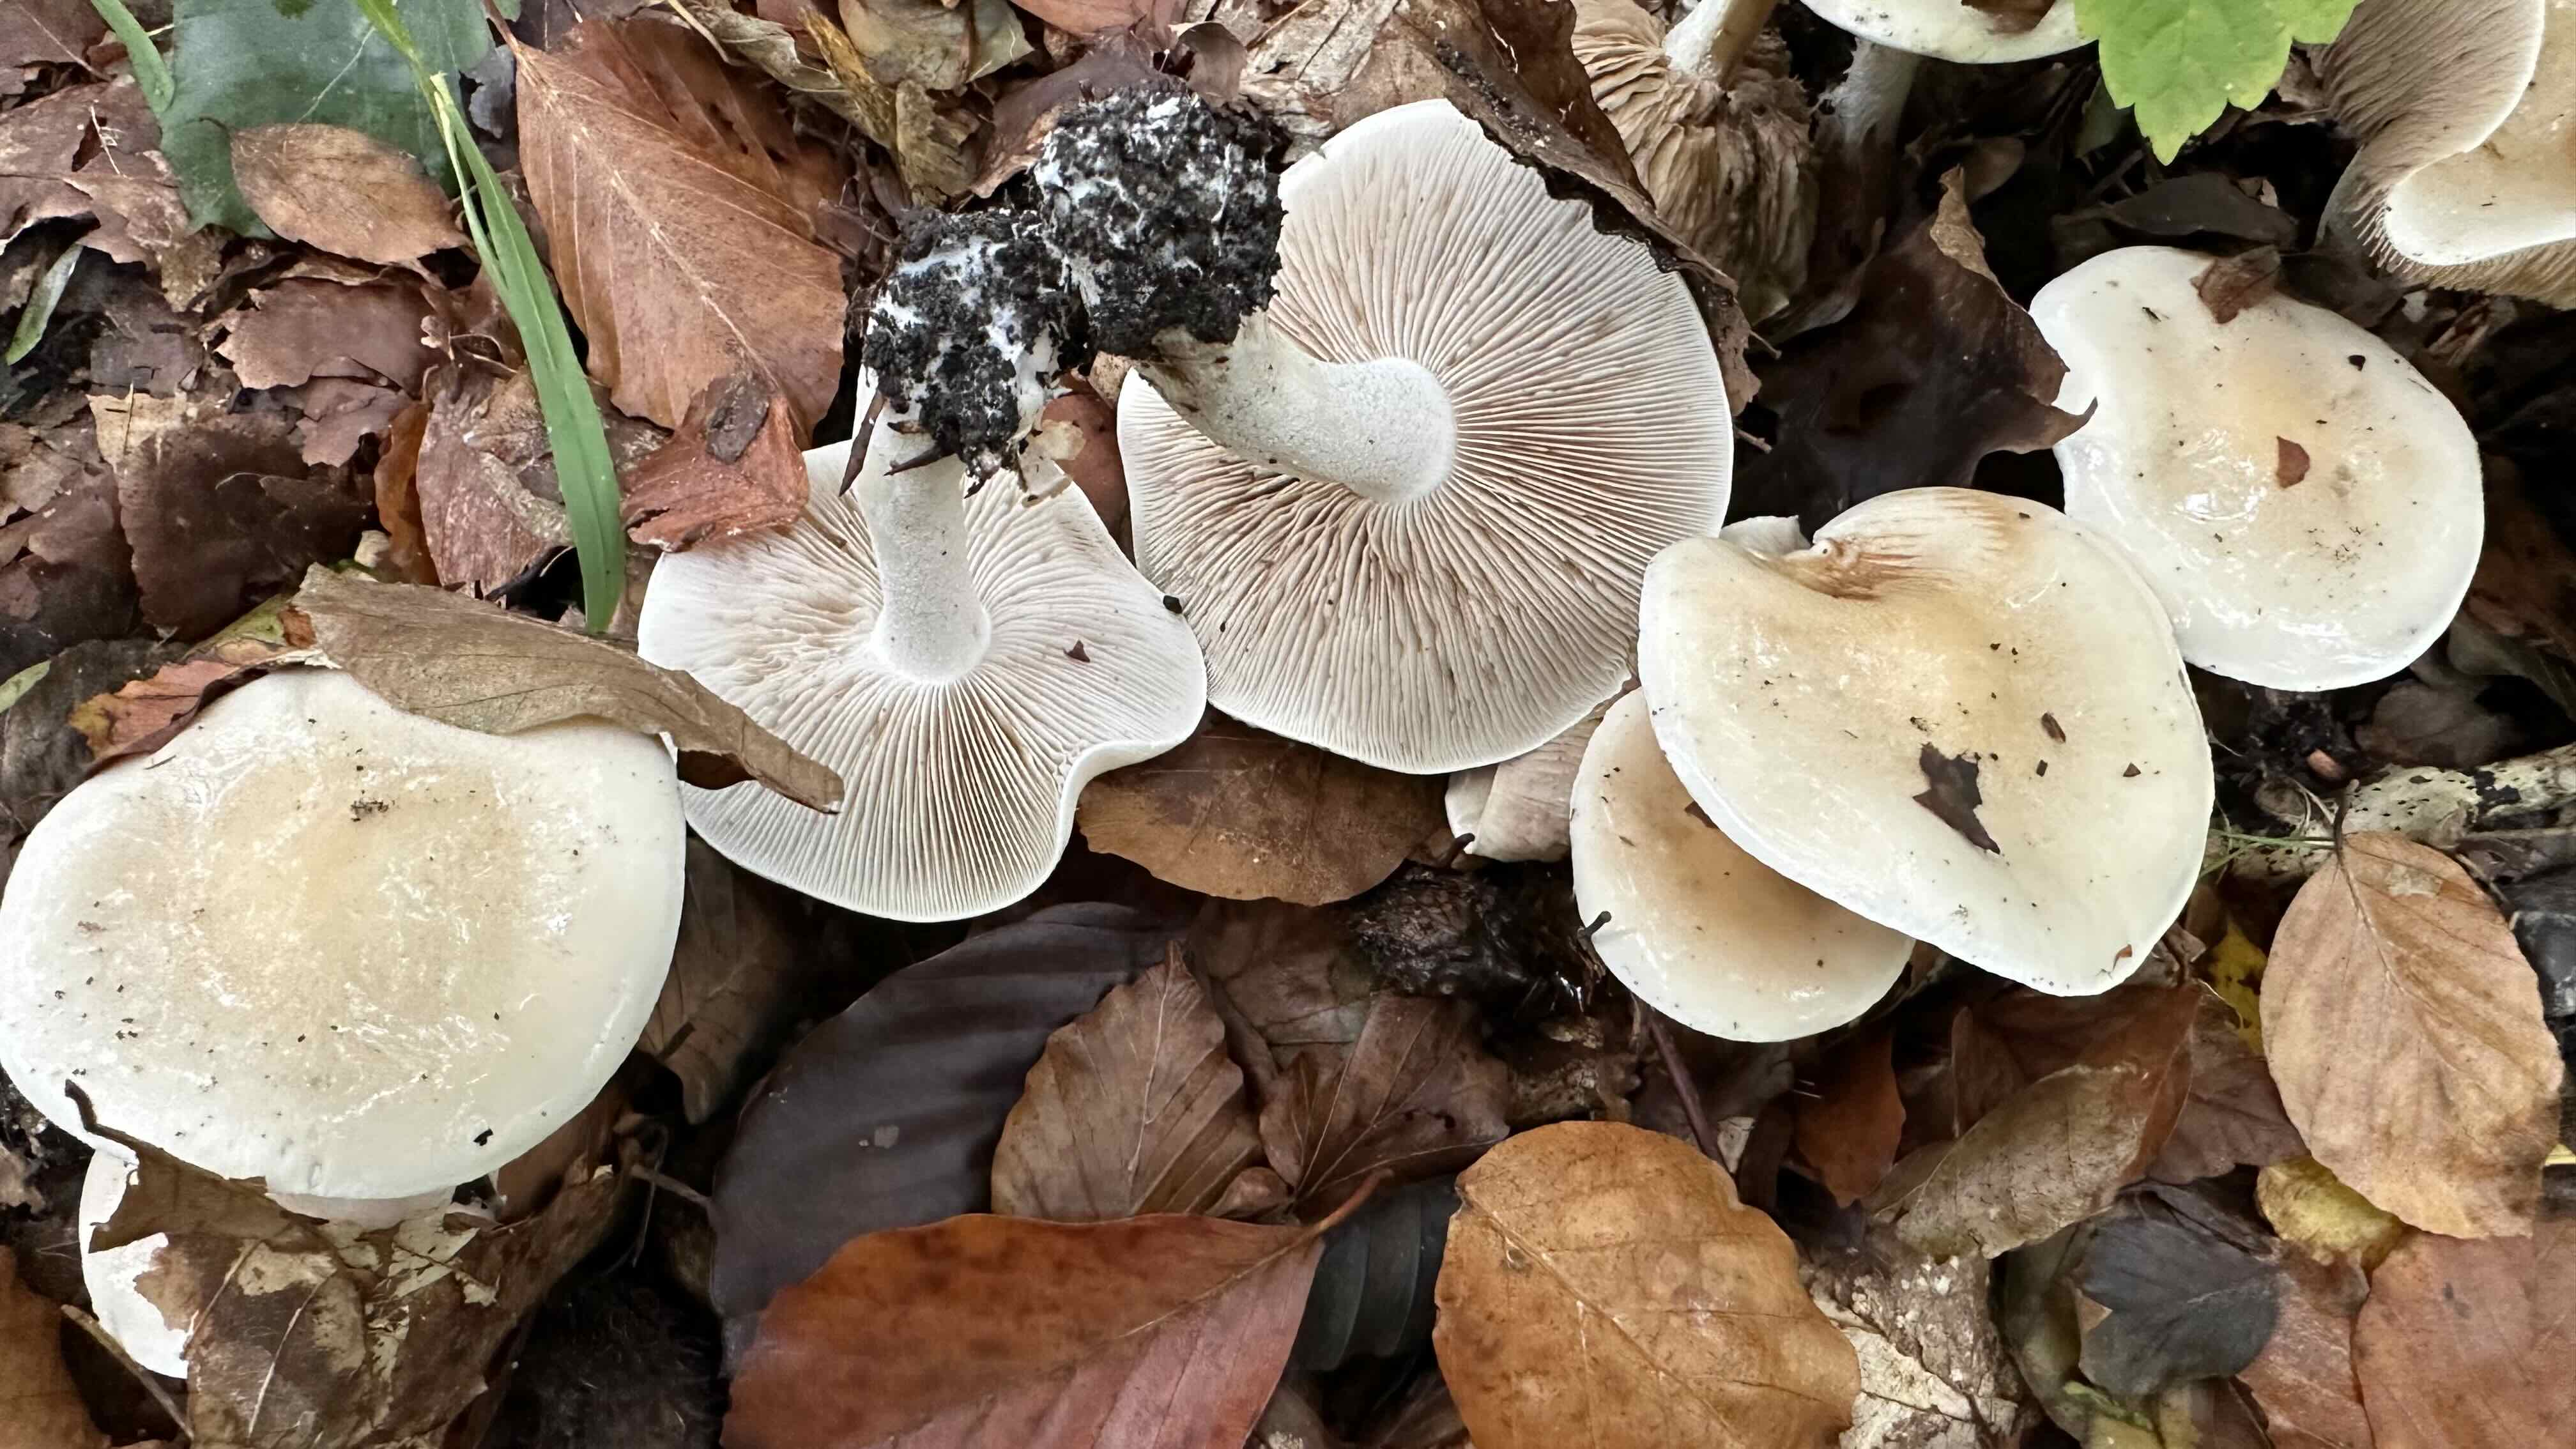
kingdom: Fungi
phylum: Basidiomycota
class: Agaricomycetes
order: Agaricales
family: Hymenogastraceae
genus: Hebeloma
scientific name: Hebeloma crustuliniforme
